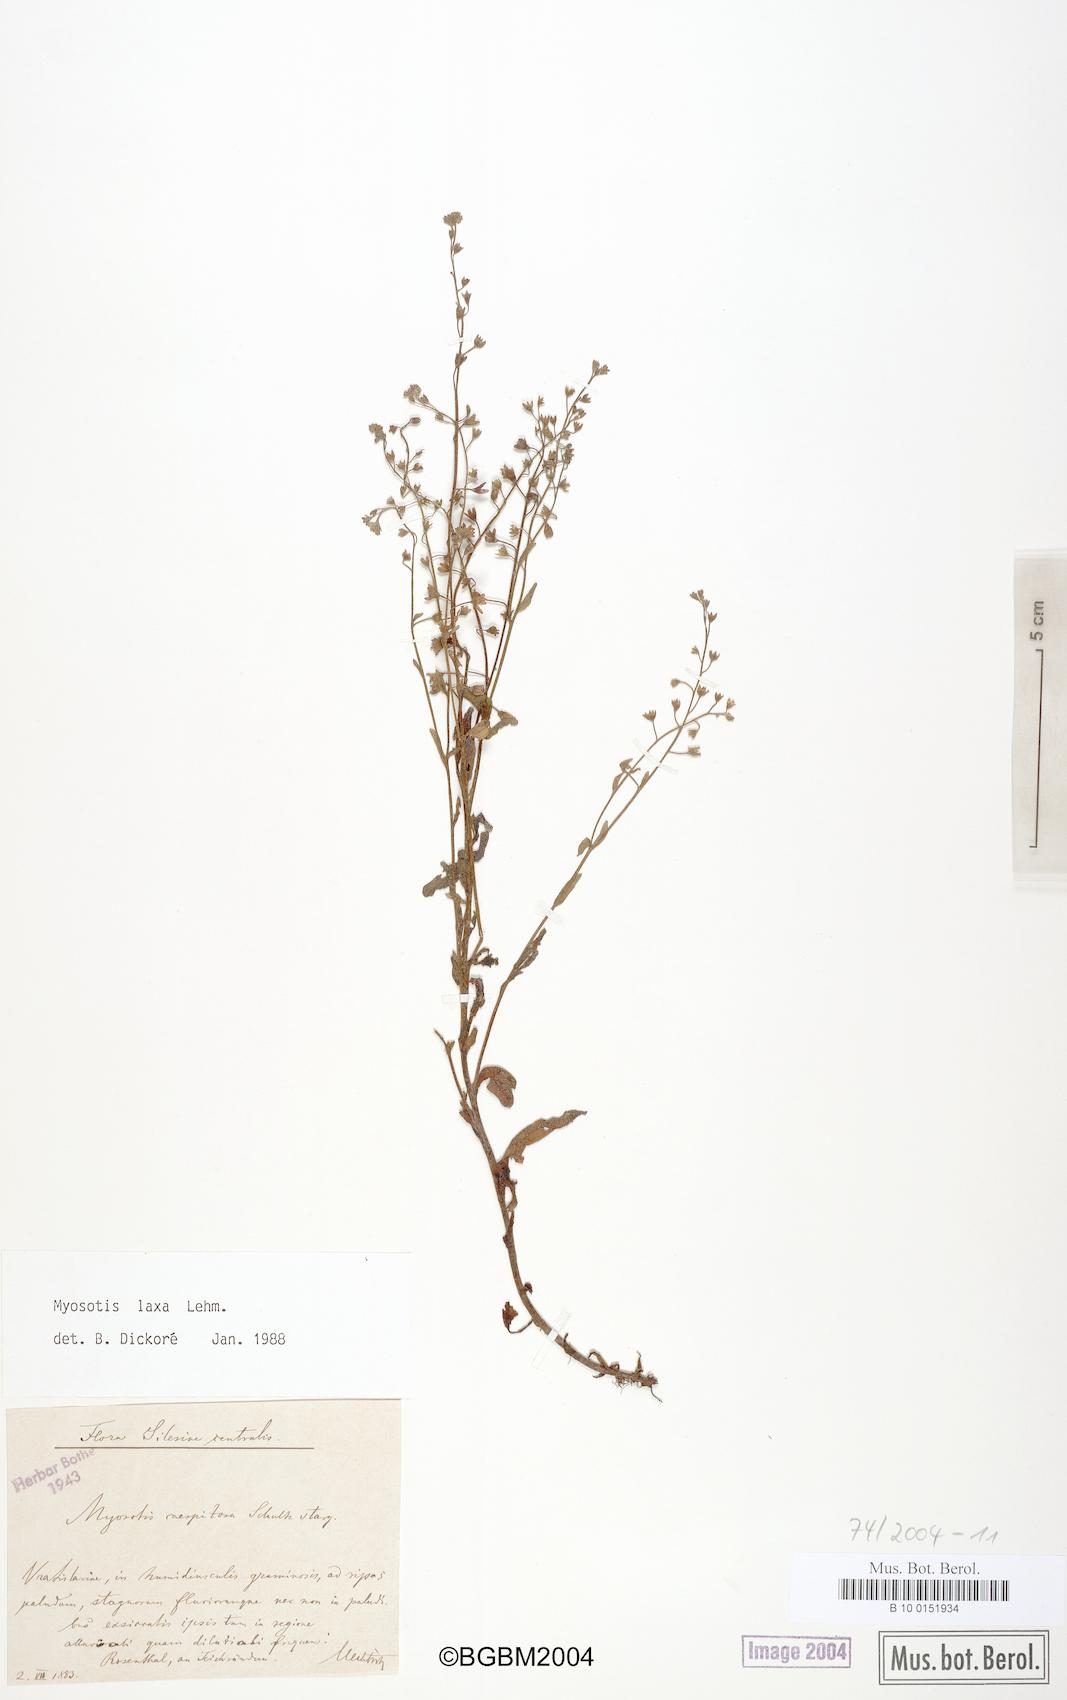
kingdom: Plantae
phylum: Tracheophyta
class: Magnoliopsida
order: Boraginales
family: Boraginaceae
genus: Myosotis
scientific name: Myosotis laxa
